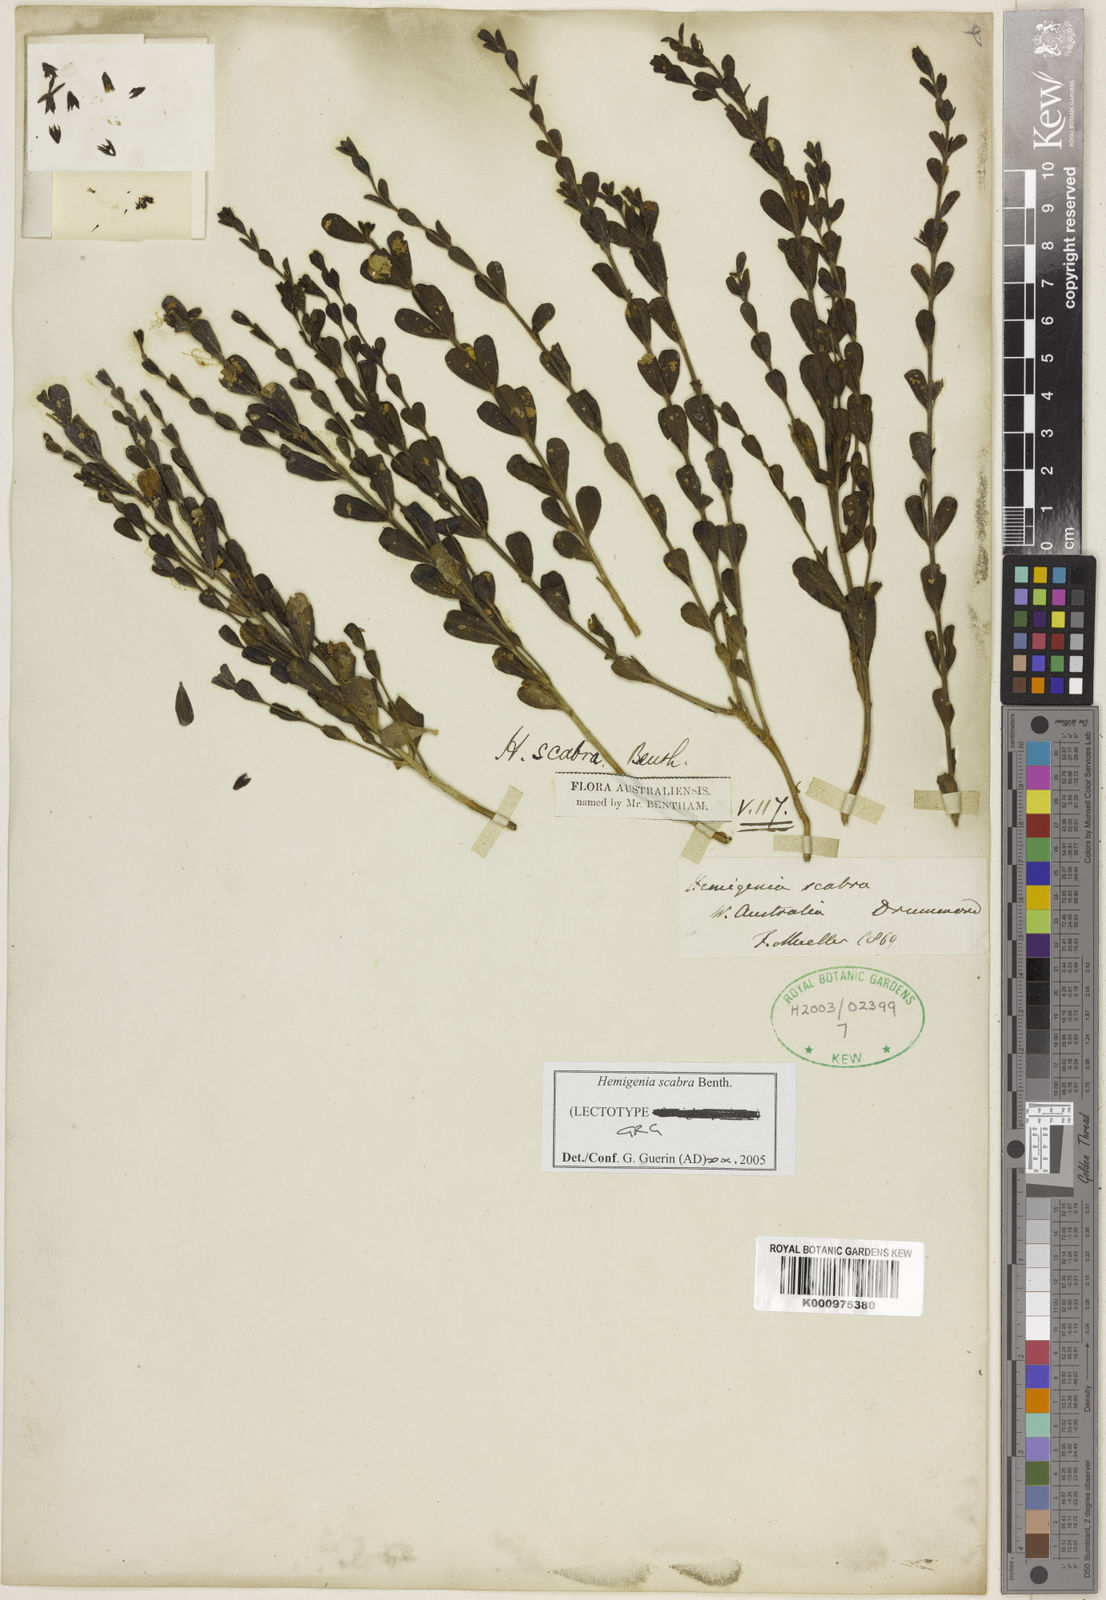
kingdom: Plantae
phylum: Tracheophyta
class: Magnoliopsida
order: Lamiales
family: Lamiaceae
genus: Hemigenia
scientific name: Hemigenia scabra
